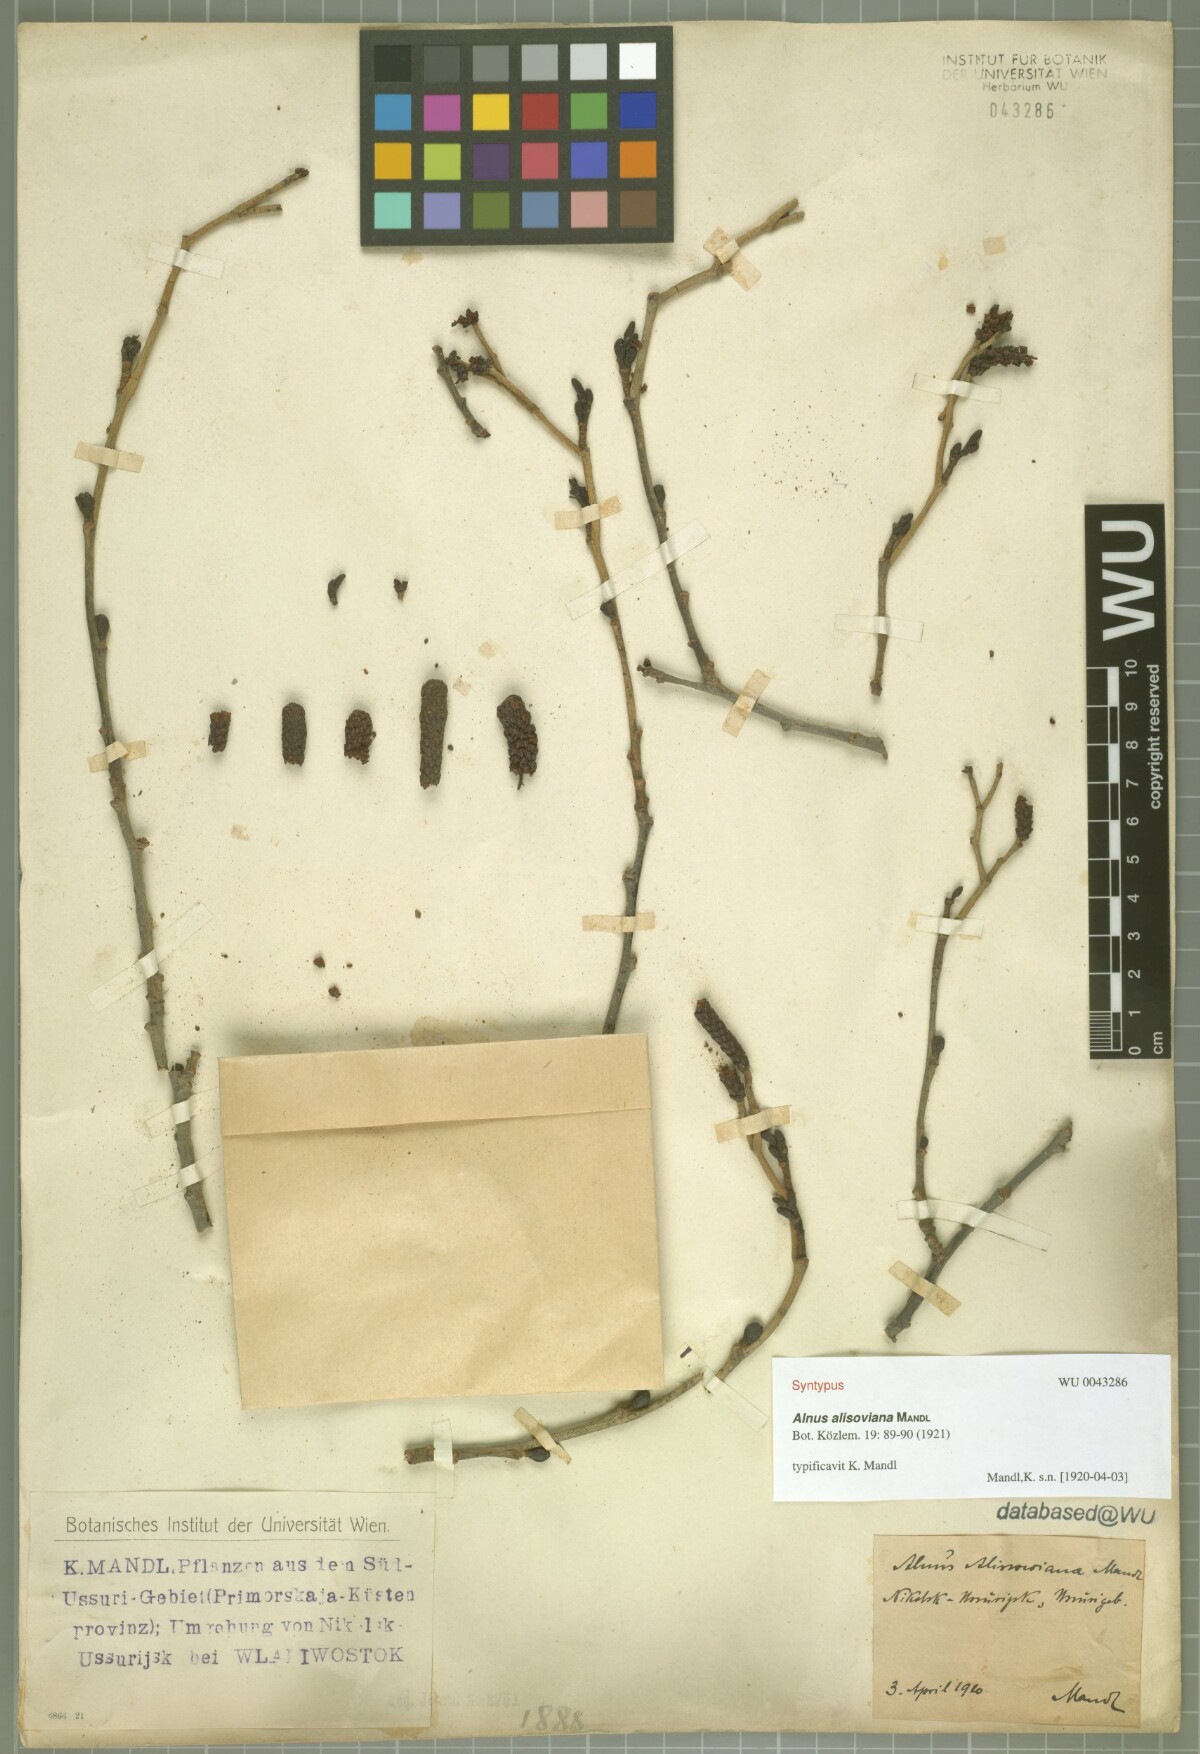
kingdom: Plantae
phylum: Tracheophyta
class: Magnoliopsida
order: Fagales
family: Betulaceae
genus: Alnus
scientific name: Alnus incana
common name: Grey alder
